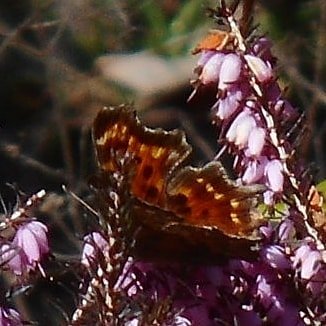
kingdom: Animalia
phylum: Arthropoda
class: Insecta
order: Lepidoptera
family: Nymphalidae
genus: Polygonia
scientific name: Polygonia faunus
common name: Green Comma
